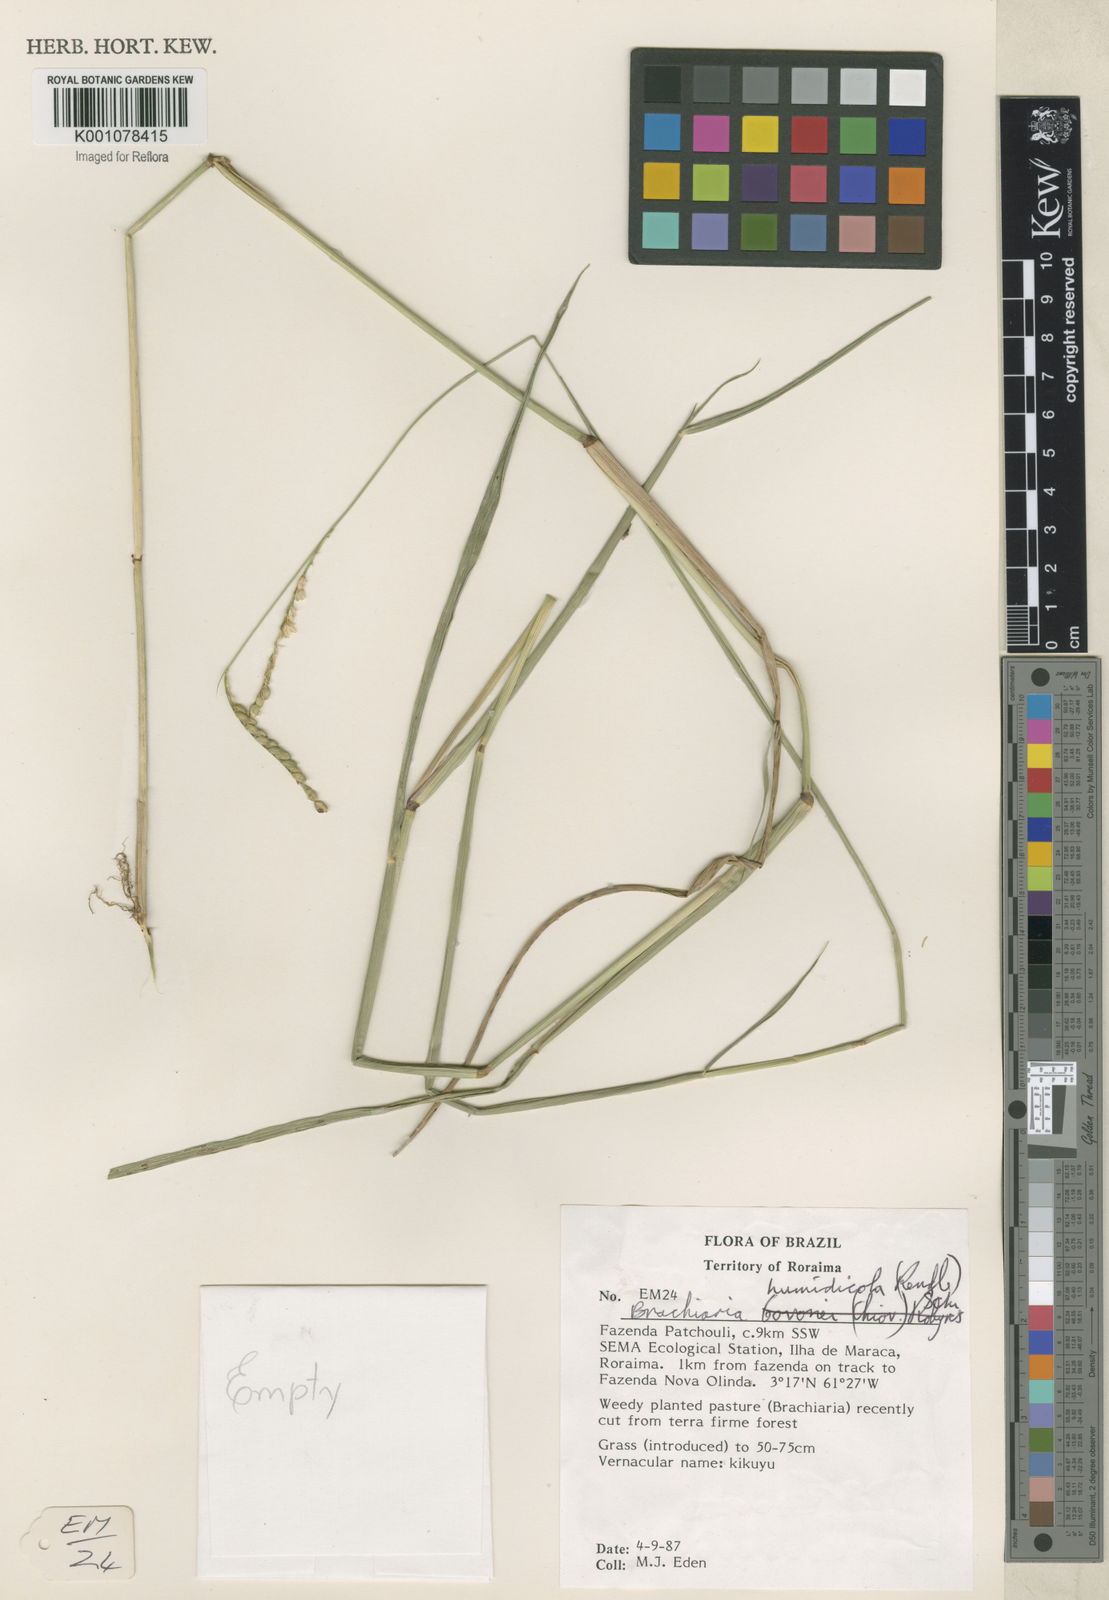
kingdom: Plantae
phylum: Tracheophyta
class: Liliopsida
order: Poales
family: Poaceae
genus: Urochloa
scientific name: Urochloa dictyoneura
